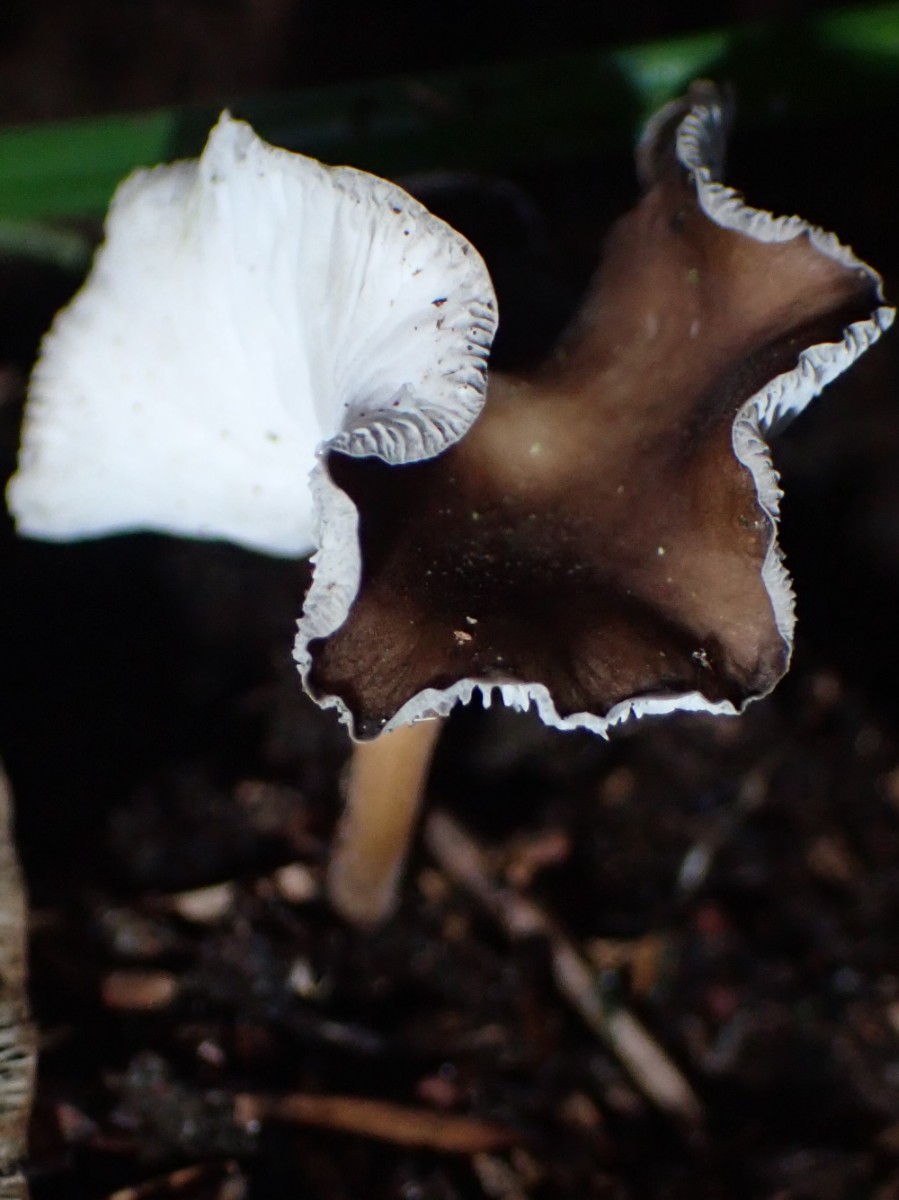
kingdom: Fungi
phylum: Basidiomycota
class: Agaricomycetes
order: Agaricales
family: Tricholomataceae
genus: Melanoleuca
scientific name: Melanoleuca
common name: munkehat
